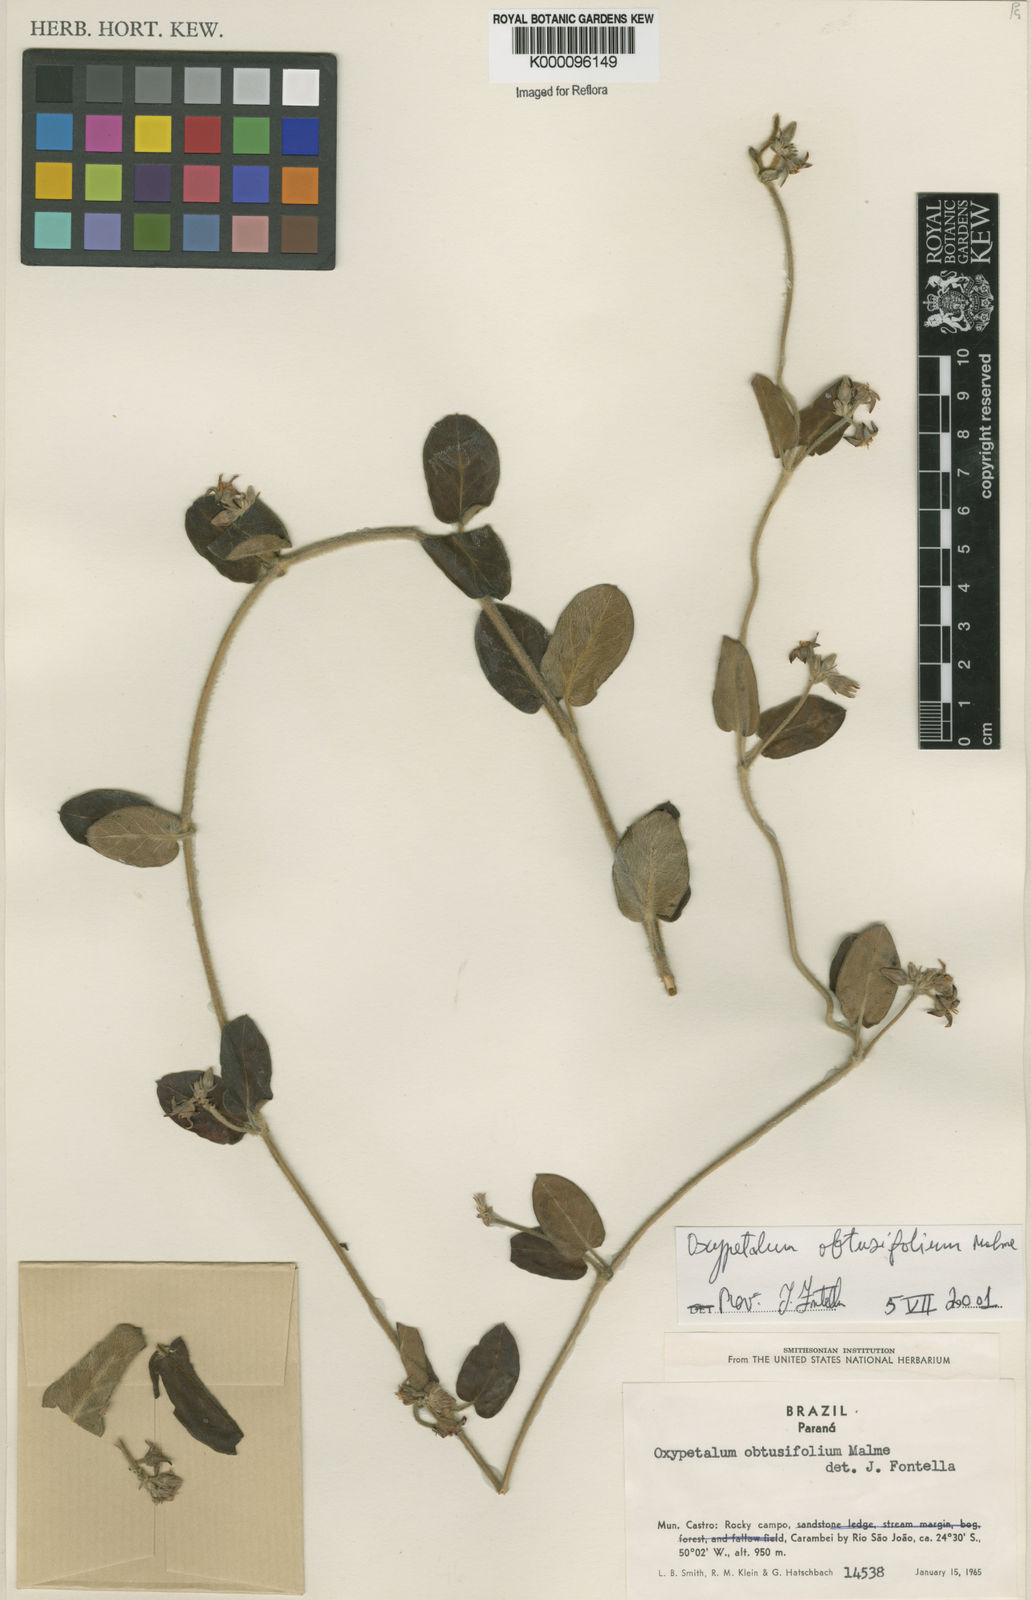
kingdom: Plantae
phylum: Tracheophyta
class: Magnoliopsida
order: Gentianales
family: Apocynaceae
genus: Oxypetalum
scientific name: Oxypetalum obtusifolium
